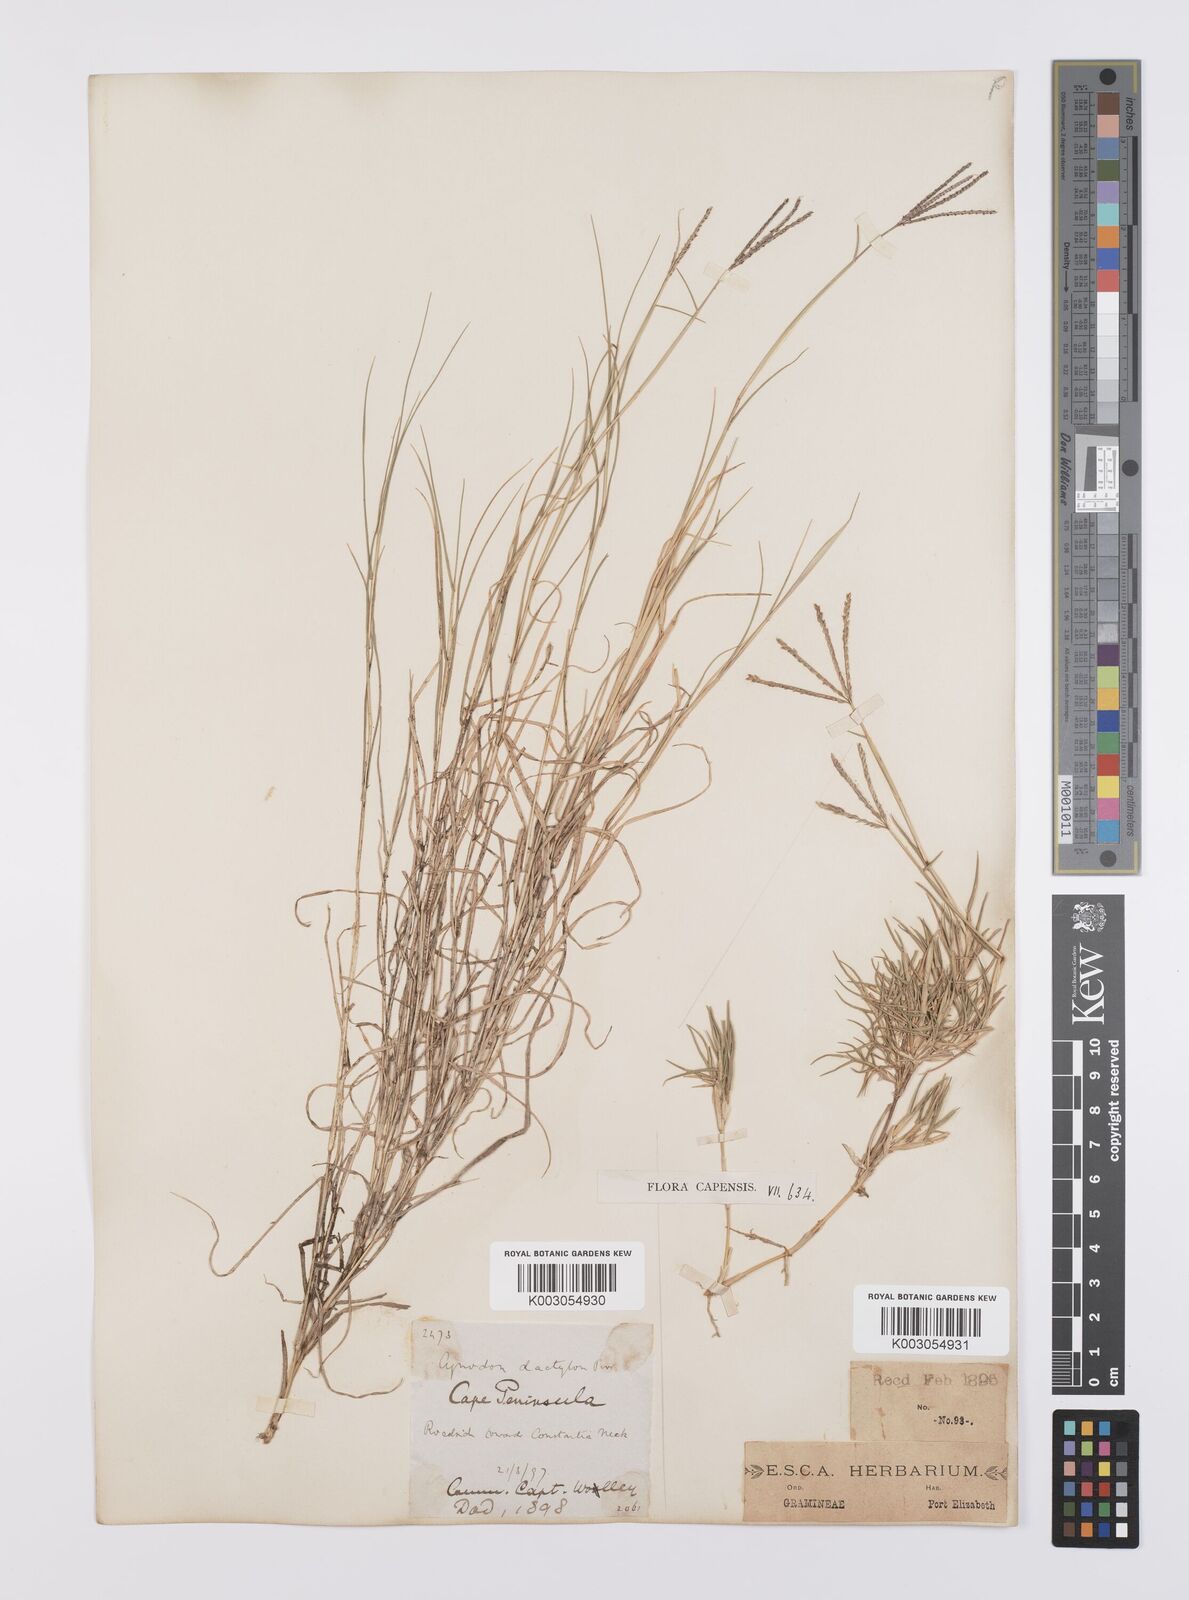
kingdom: Plantae
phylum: Tracheophyta
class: Liliopsida
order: Poales
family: Poaceae
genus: Cynodon
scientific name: Cynodon dactylon
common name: Bermuda grass
